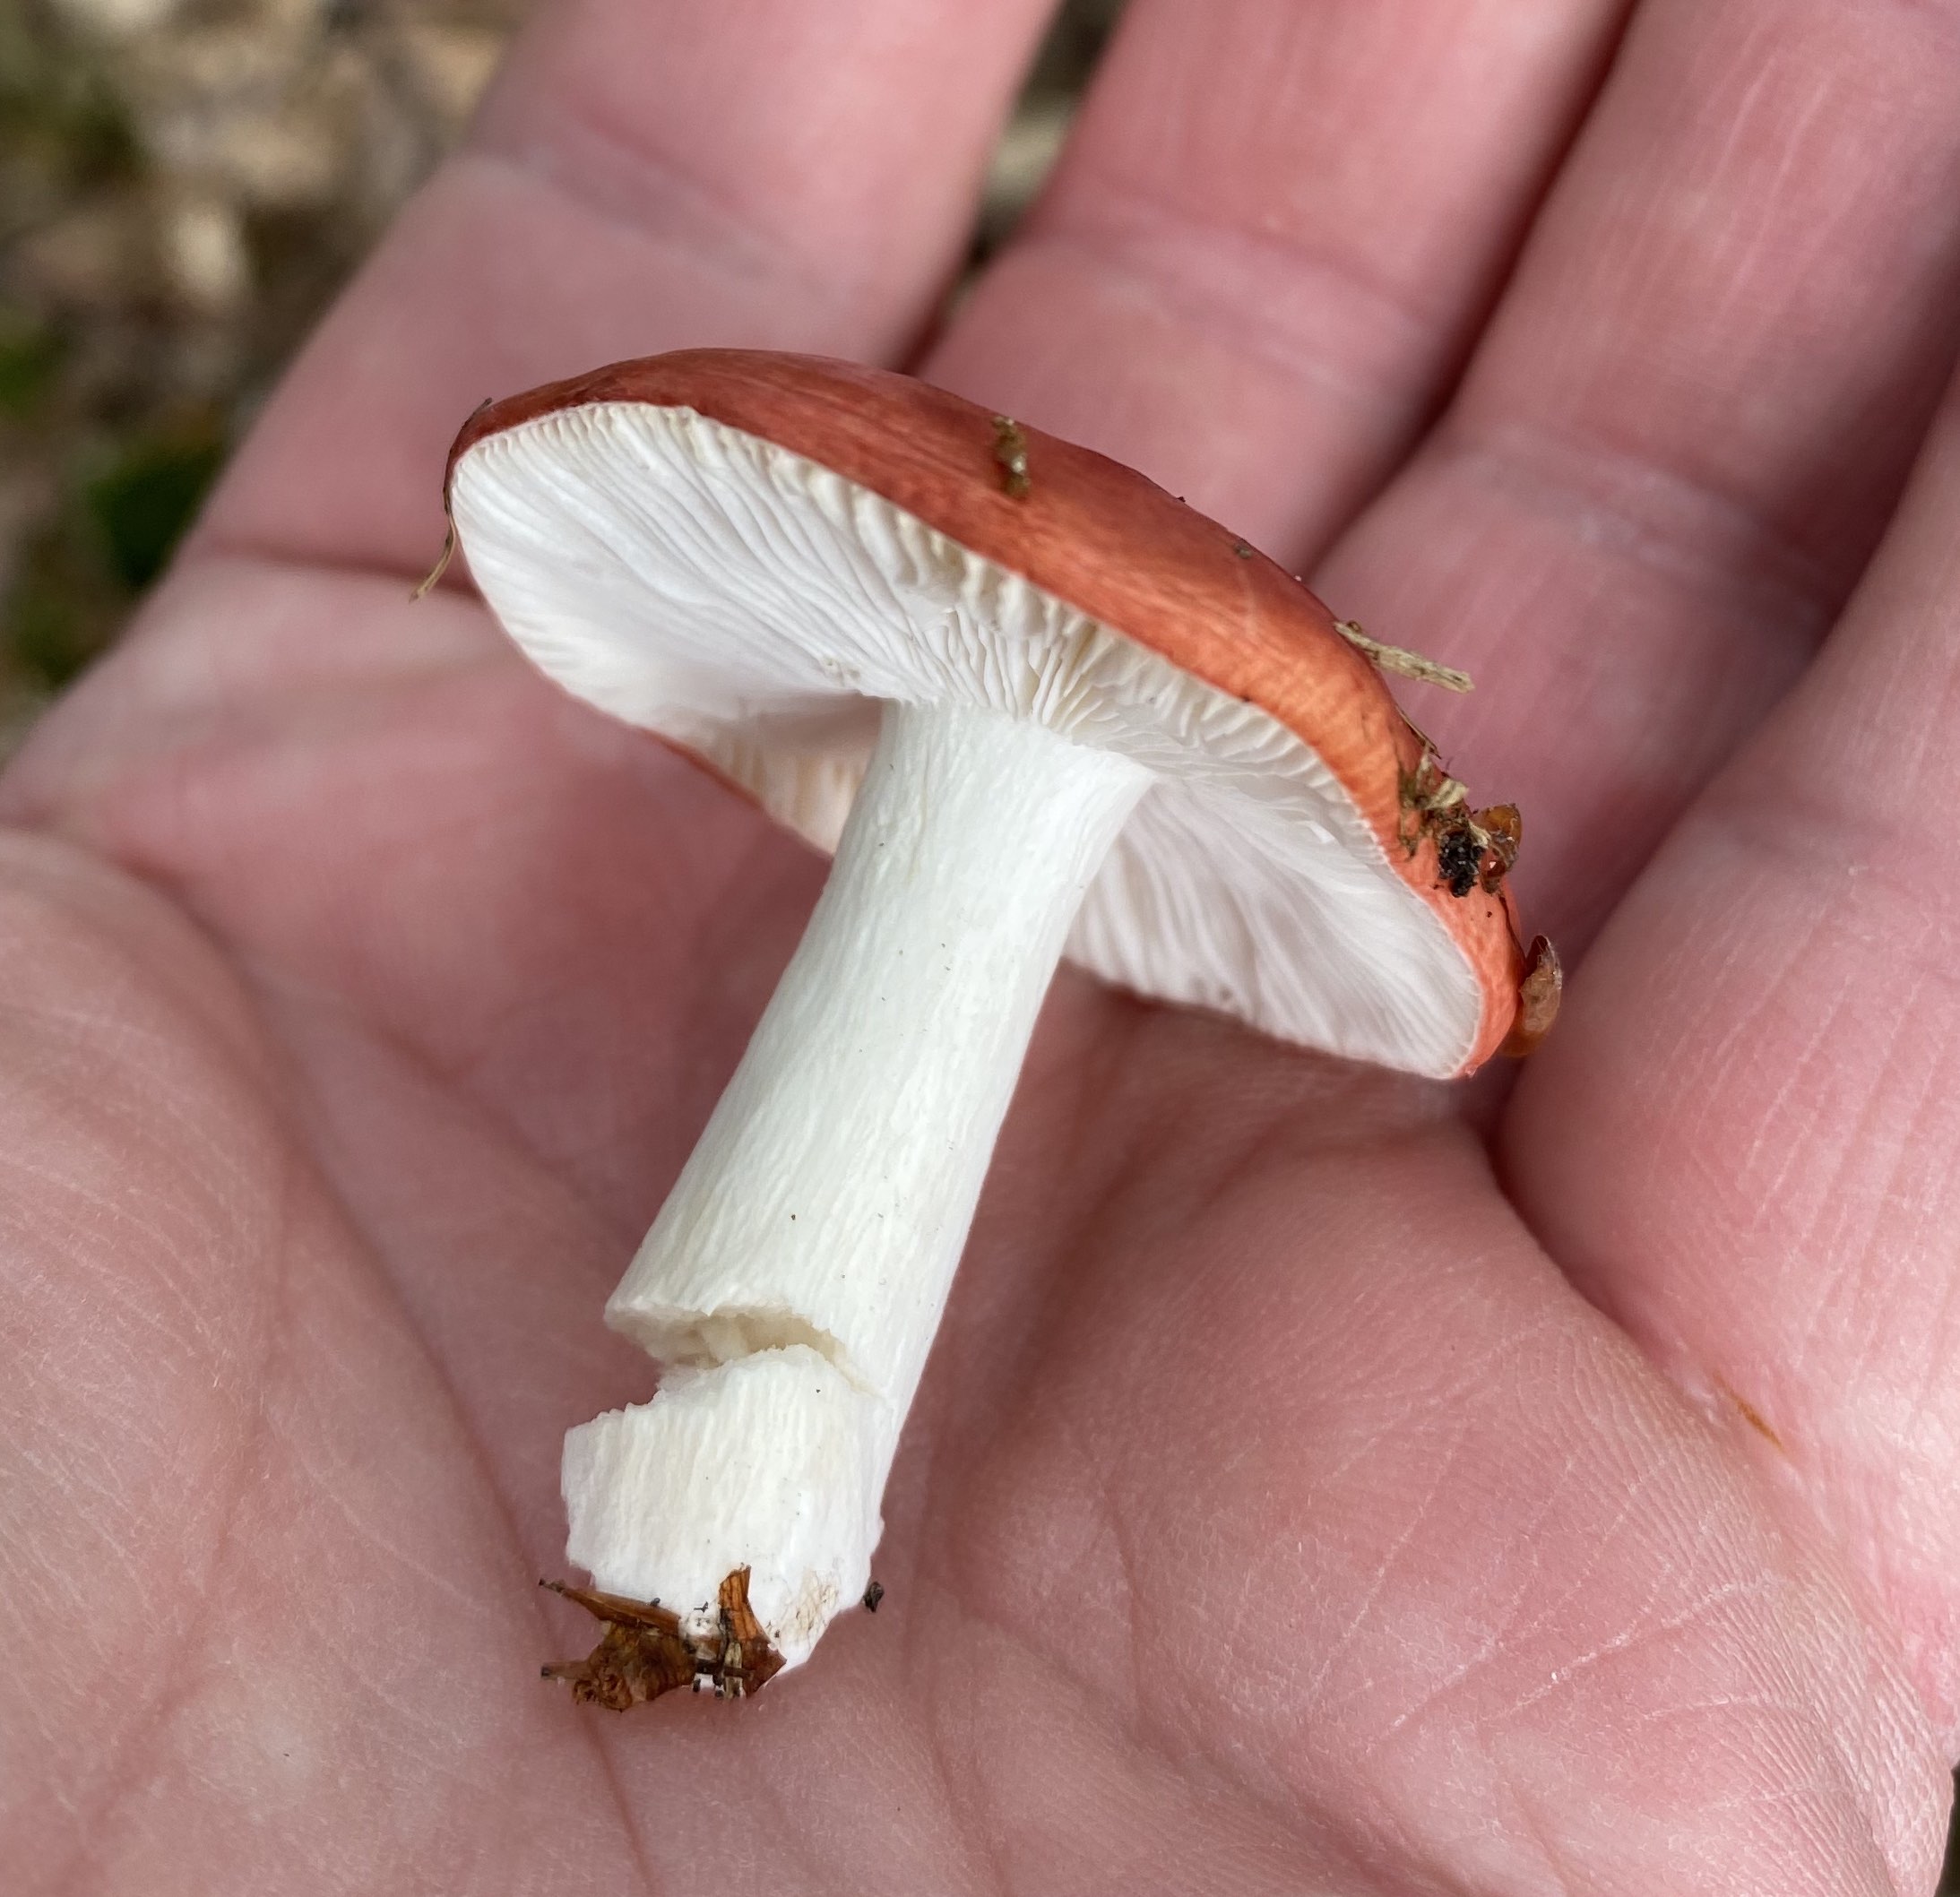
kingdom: Fungi
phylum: Basidiomycota
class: Agaricomycetes
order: Russulales
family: Russulaceae
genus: Russula
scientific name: Russula silvestris
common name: mellemstor gift-skørhat
